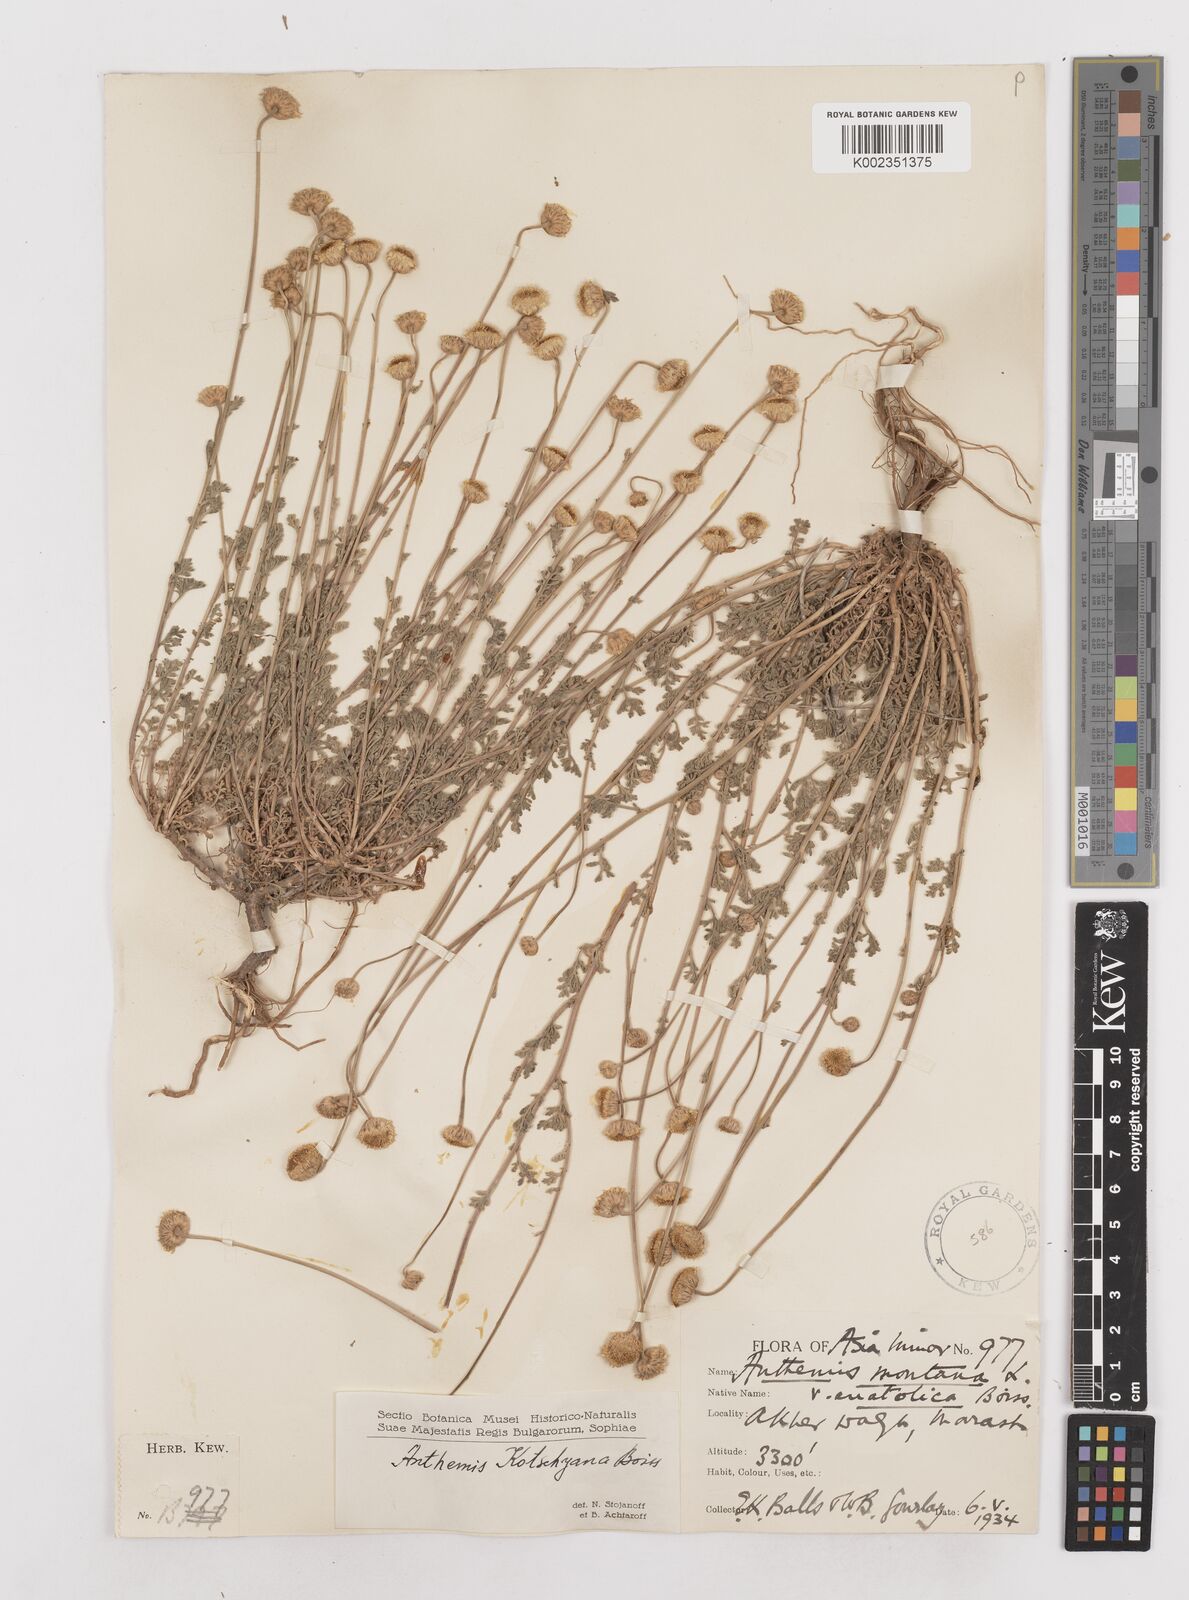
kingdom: Plantae
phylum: Tracheophyta
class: Magnoliopsida
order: Asterales
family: Asteraceae
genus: Anthemis
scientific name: Anthemis kotschyana
